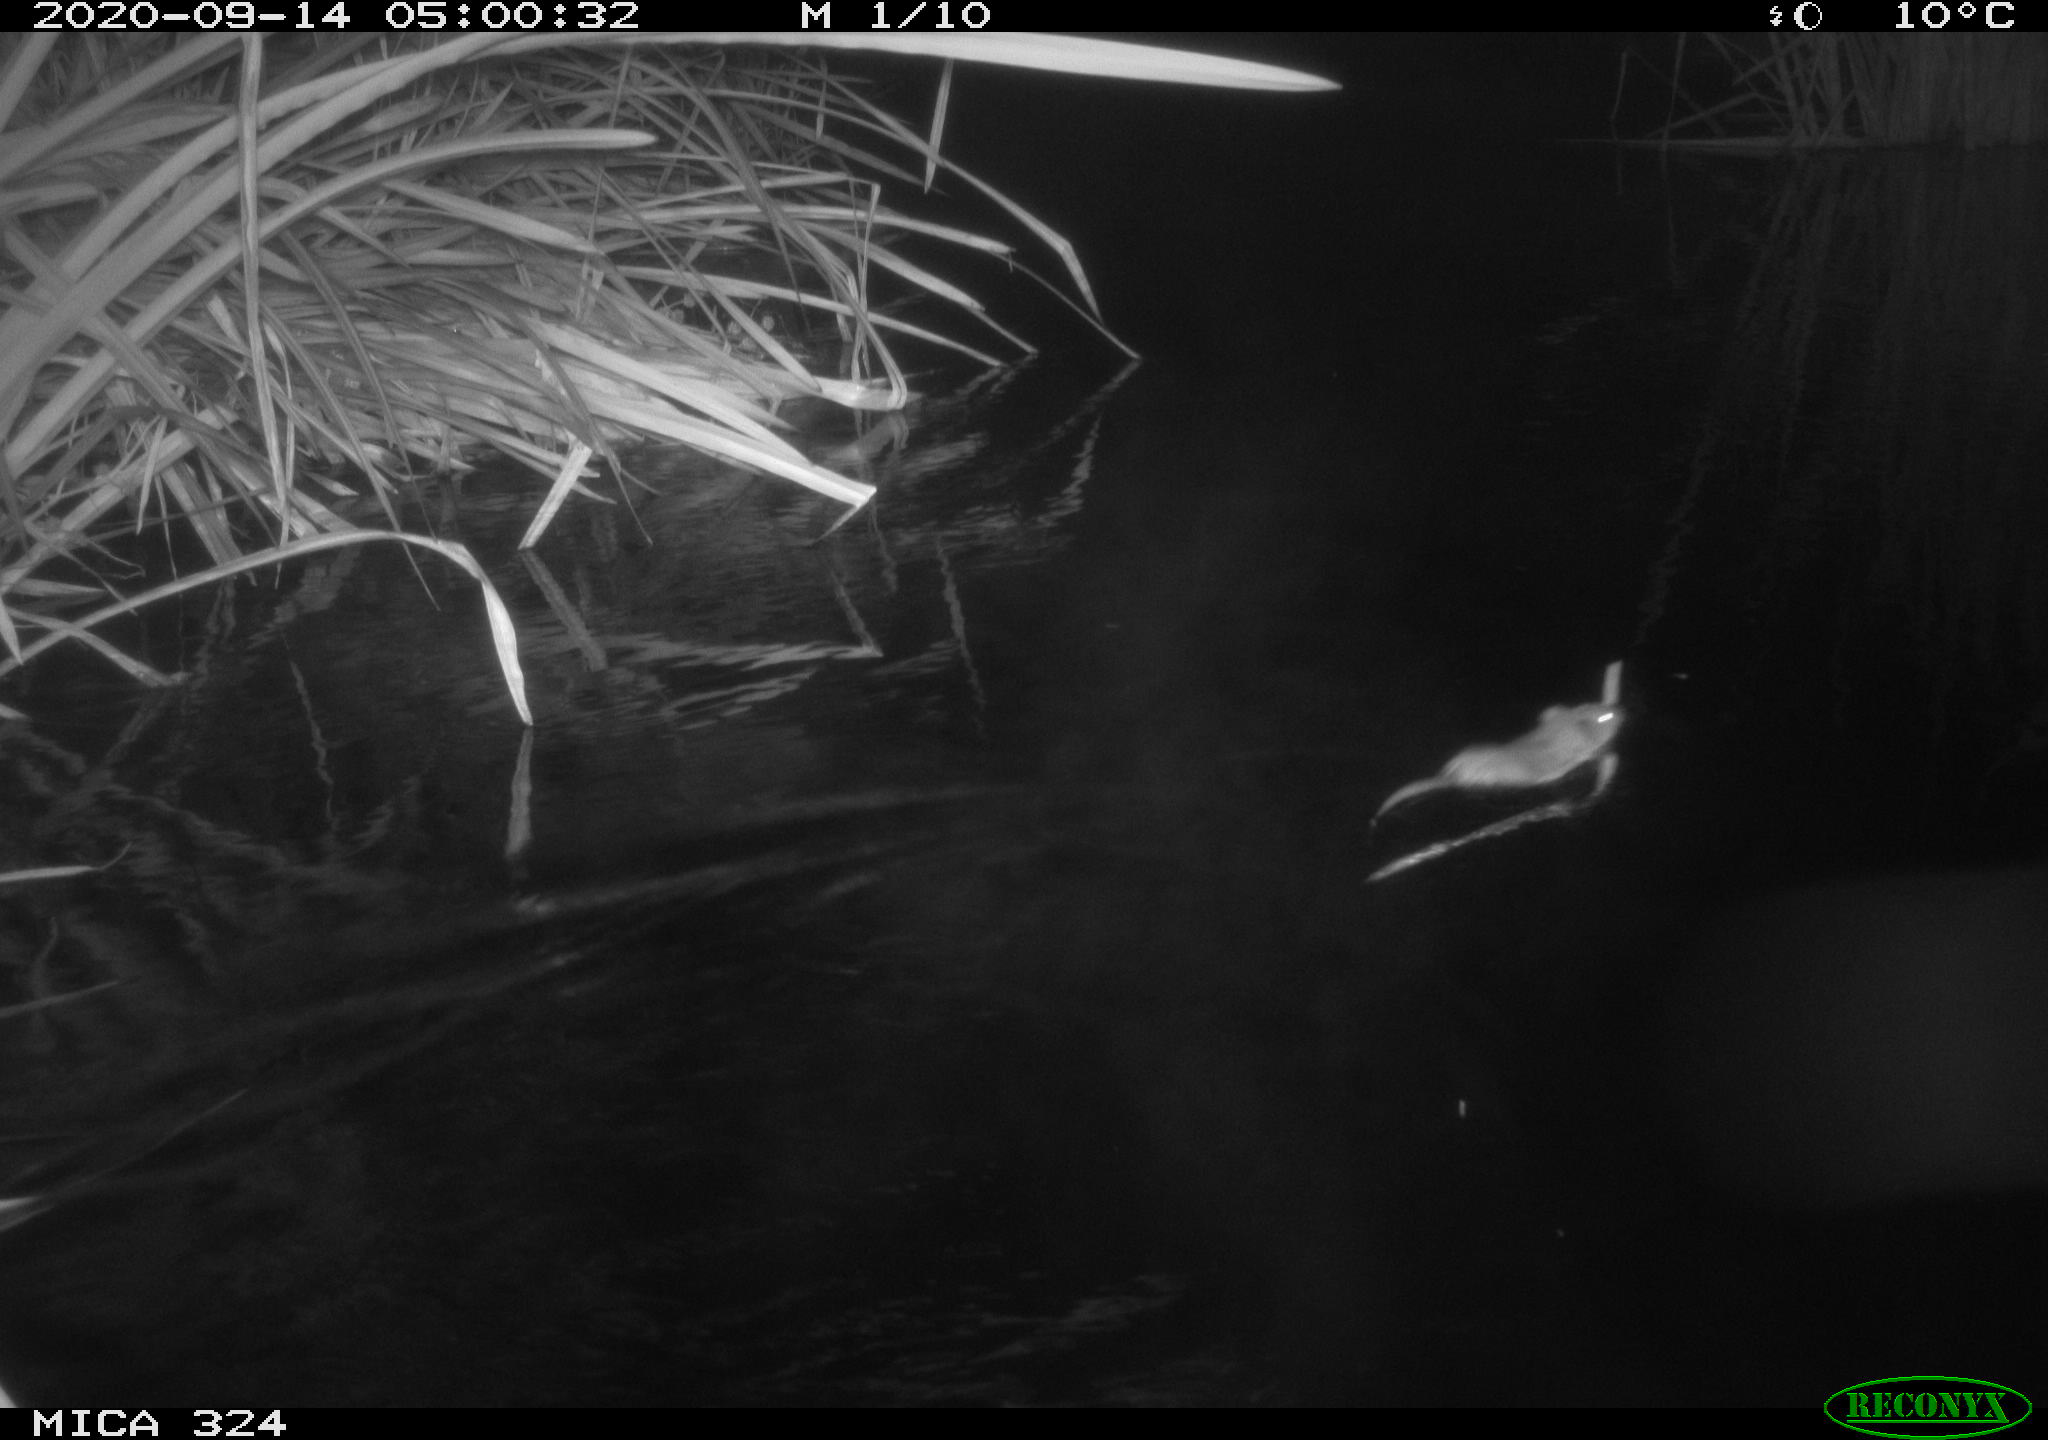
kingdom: Animalia
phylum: Chordata
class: Mammalia
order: Rodentia
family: Cricetidae
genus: Ondatra
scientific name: Ondatra zibethicus
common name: Muskrat
